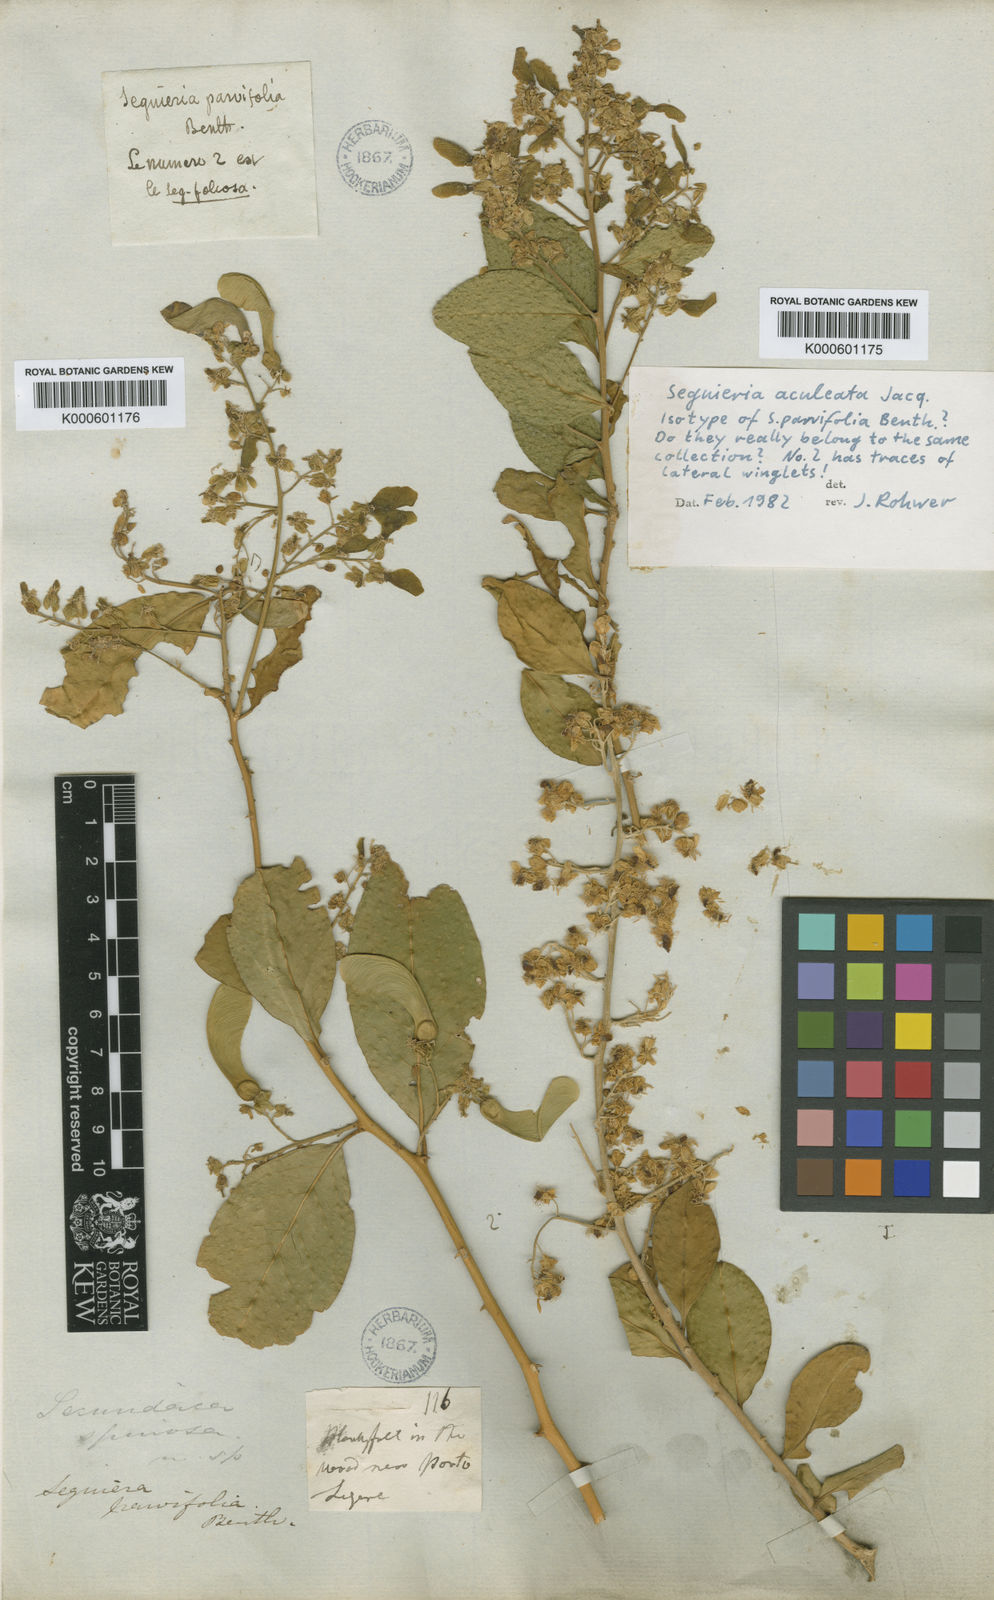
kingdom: Plantae
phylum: Tracheophyta
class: Magnoliopsida
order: Caryophyllales
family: Phytolaccaceae
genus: Seguieria
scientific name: Seguieria aculeata
